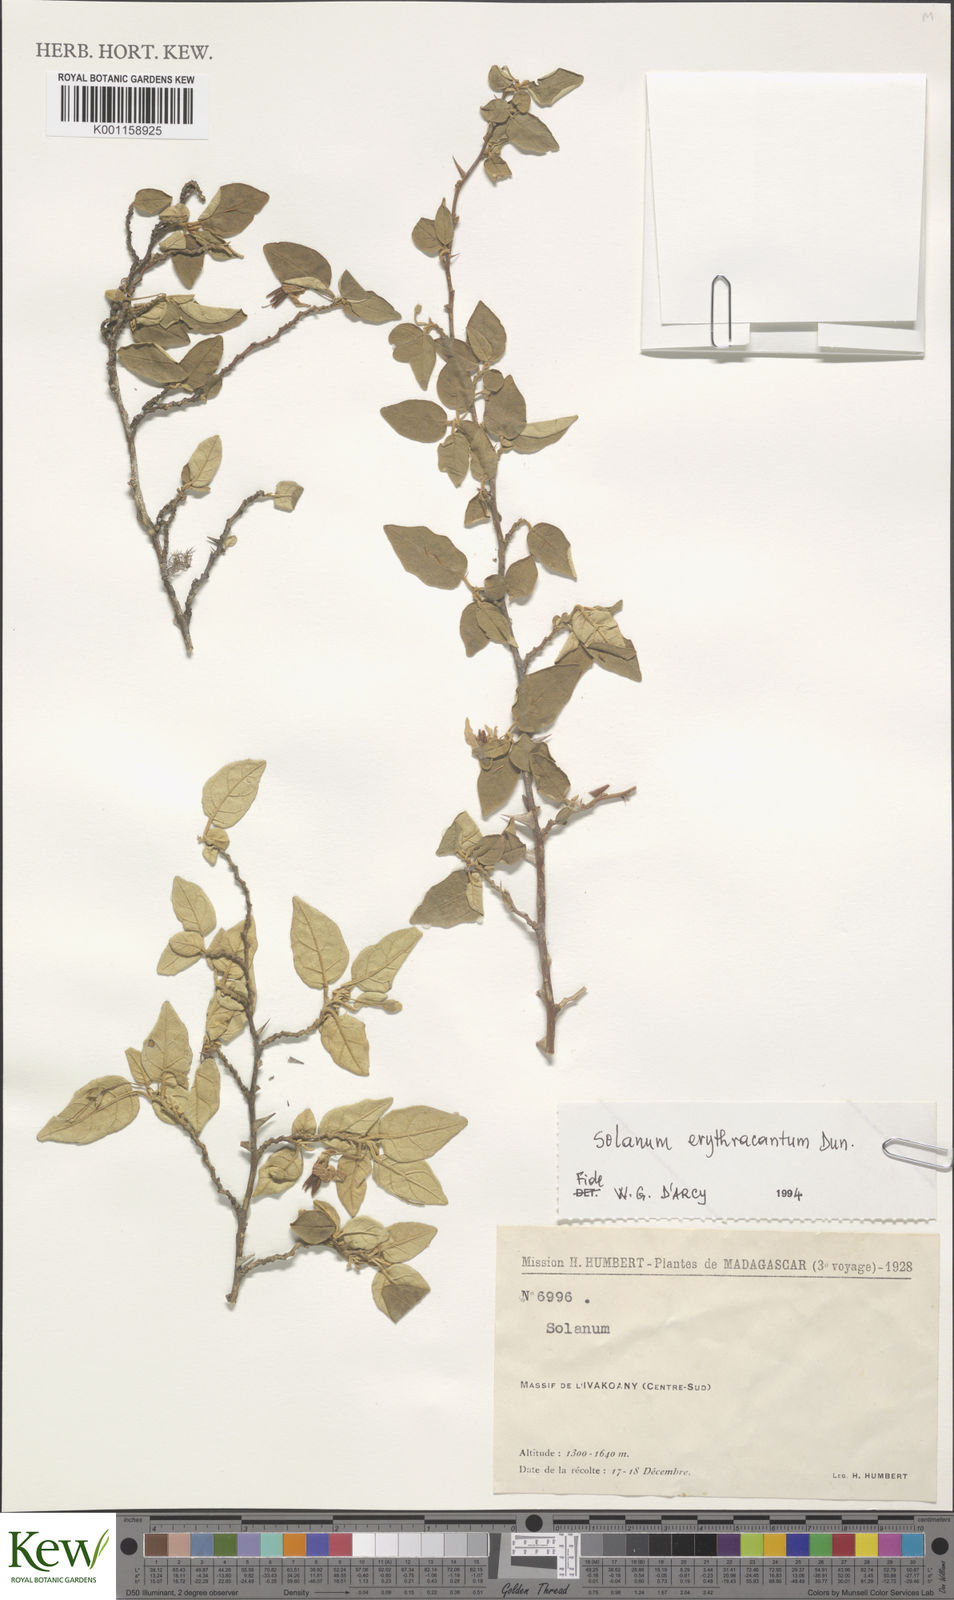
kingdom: Plantae
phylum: Tracheophyta
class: Magnoliopsida
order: Solanales
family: Solanaceae
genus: Solanum
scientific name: Solanum erythracanthum
